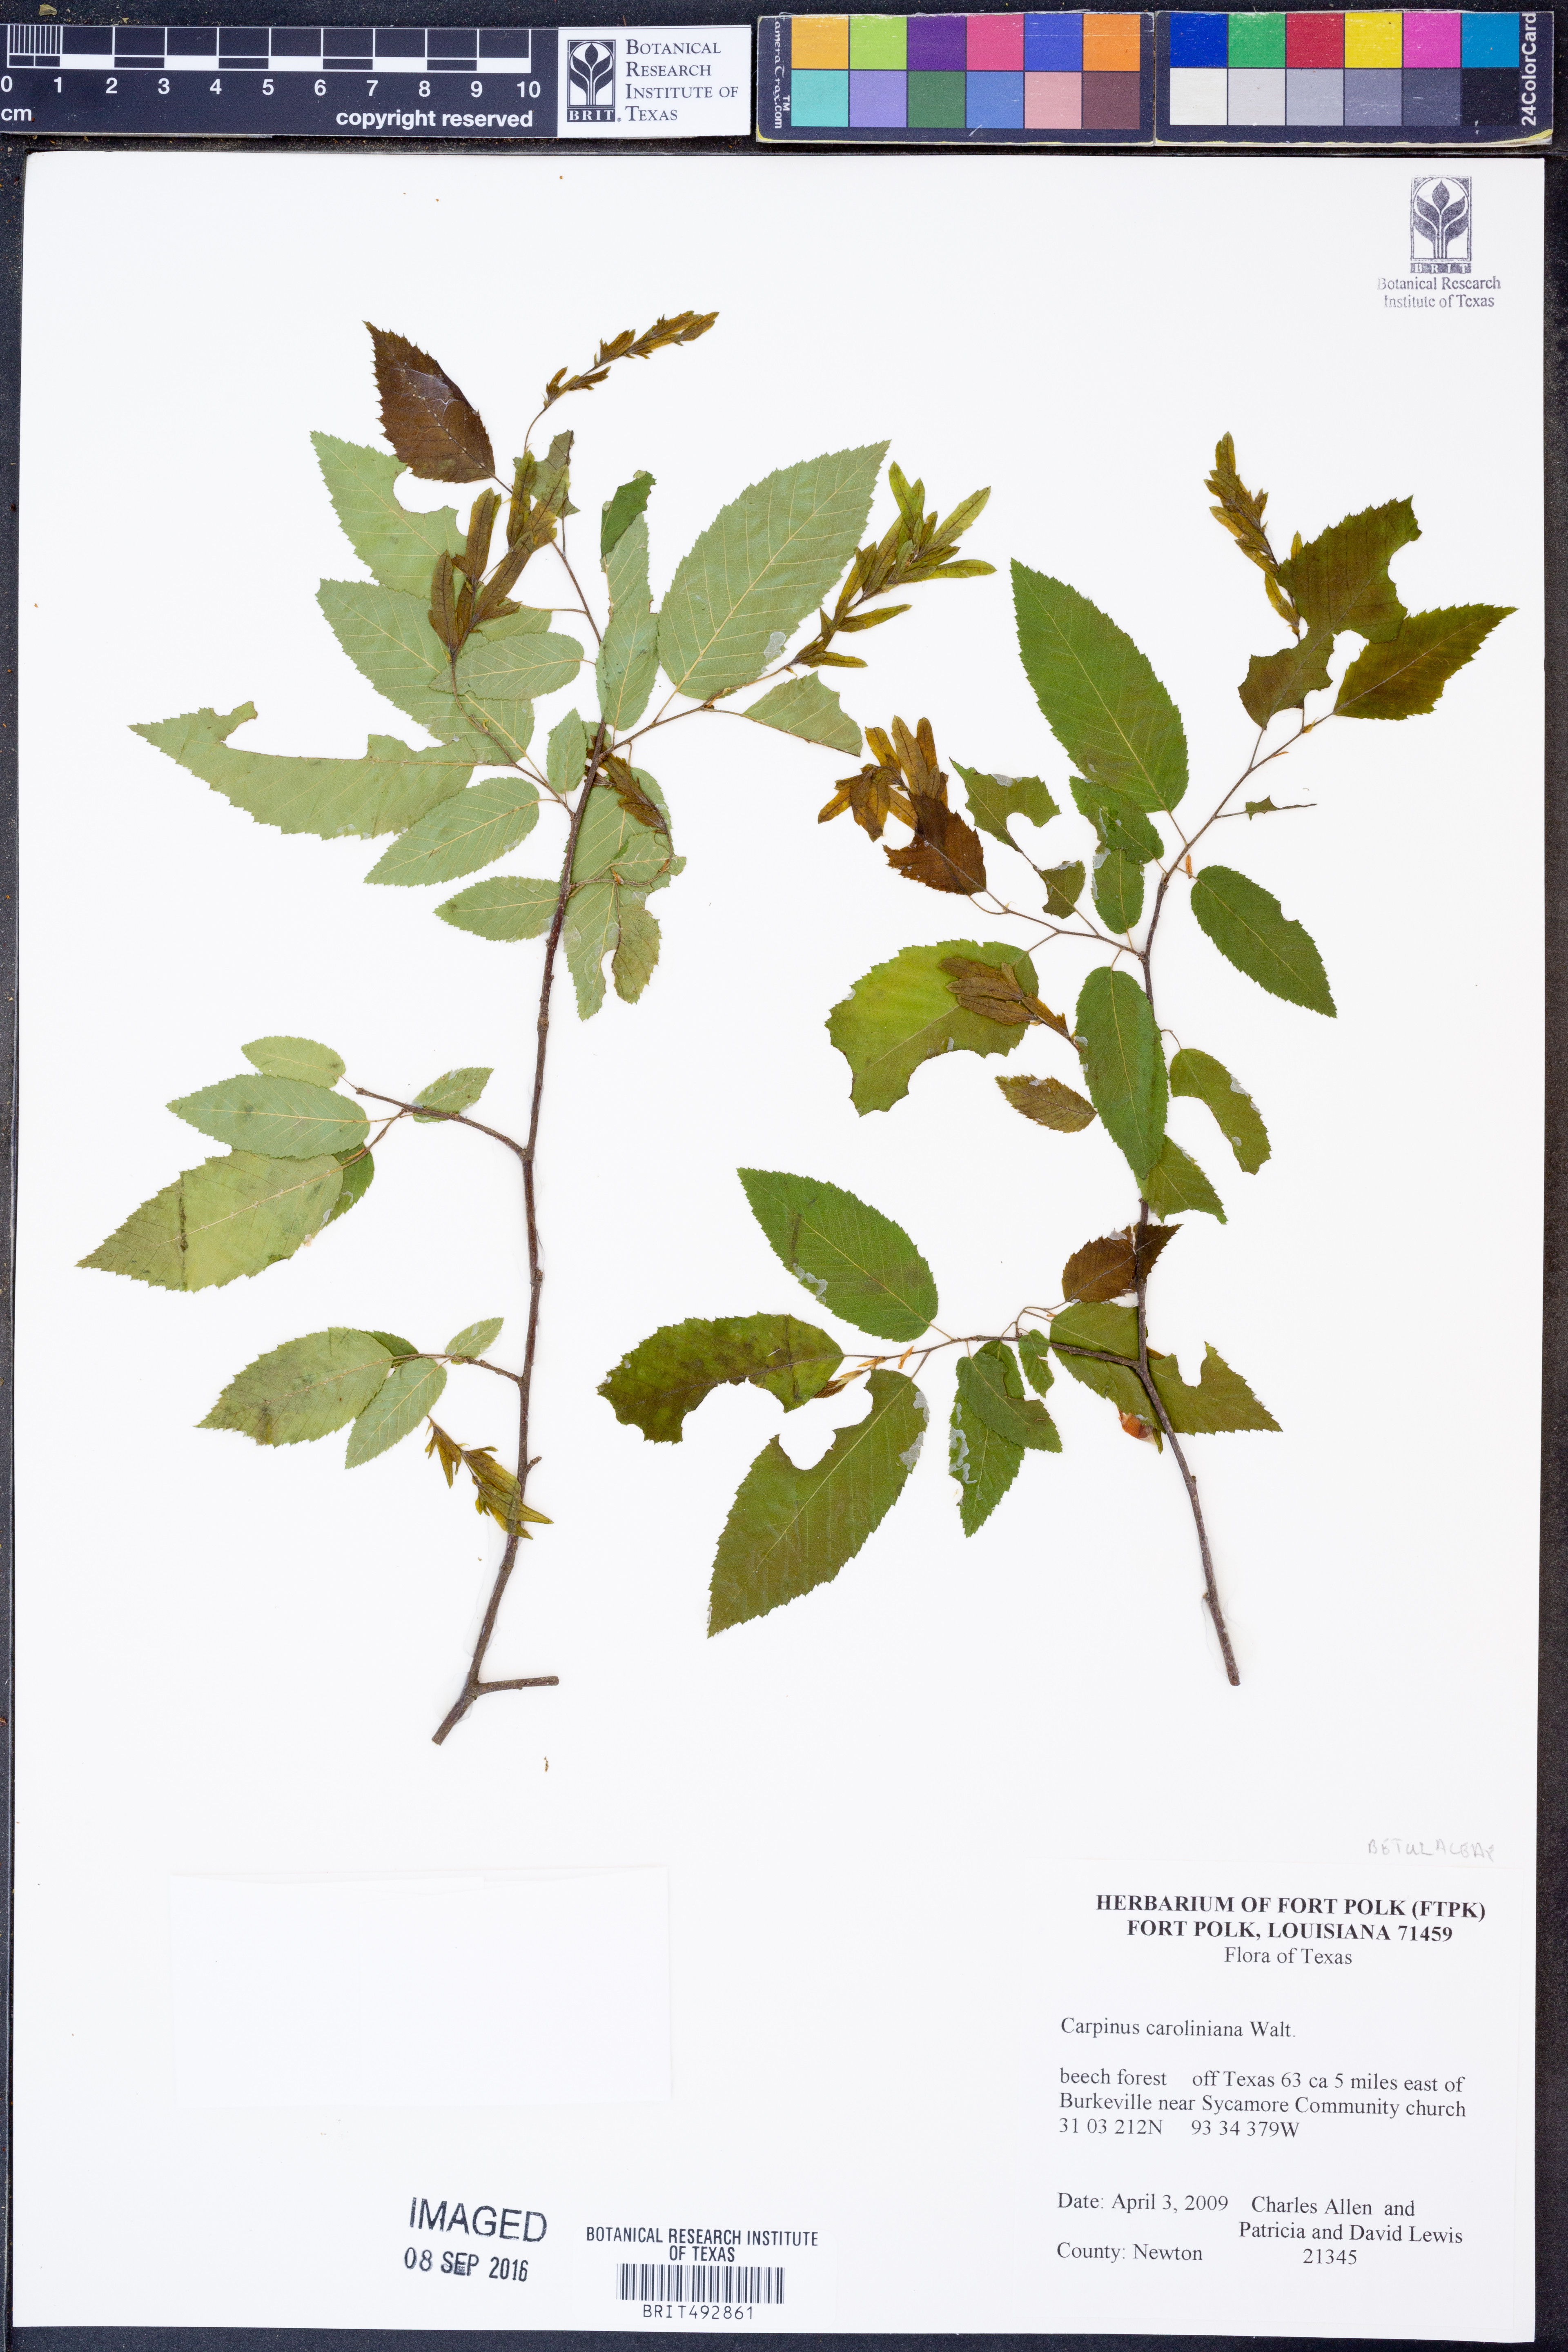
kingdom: Plantae
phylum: Tracheophyta
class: Magnoliopsida
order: Fagales
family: Betulaceae
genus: Carpinus
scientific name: Carpinus caroliniana
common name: American hornbeam
